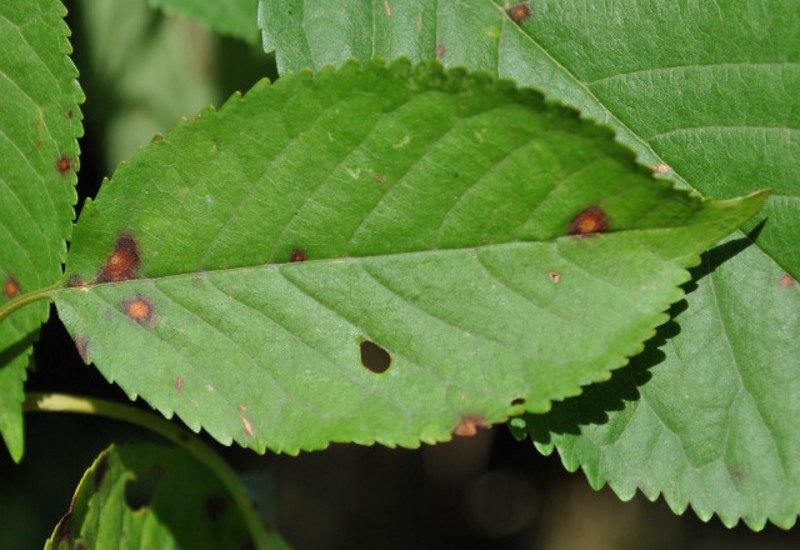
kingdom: Fungi
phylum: Ascomycota
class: Dothideomycetes
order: Mycosphaerellales
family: Mycosphaerellaceae
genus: Stigmina
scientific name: Stigmina carpophila
